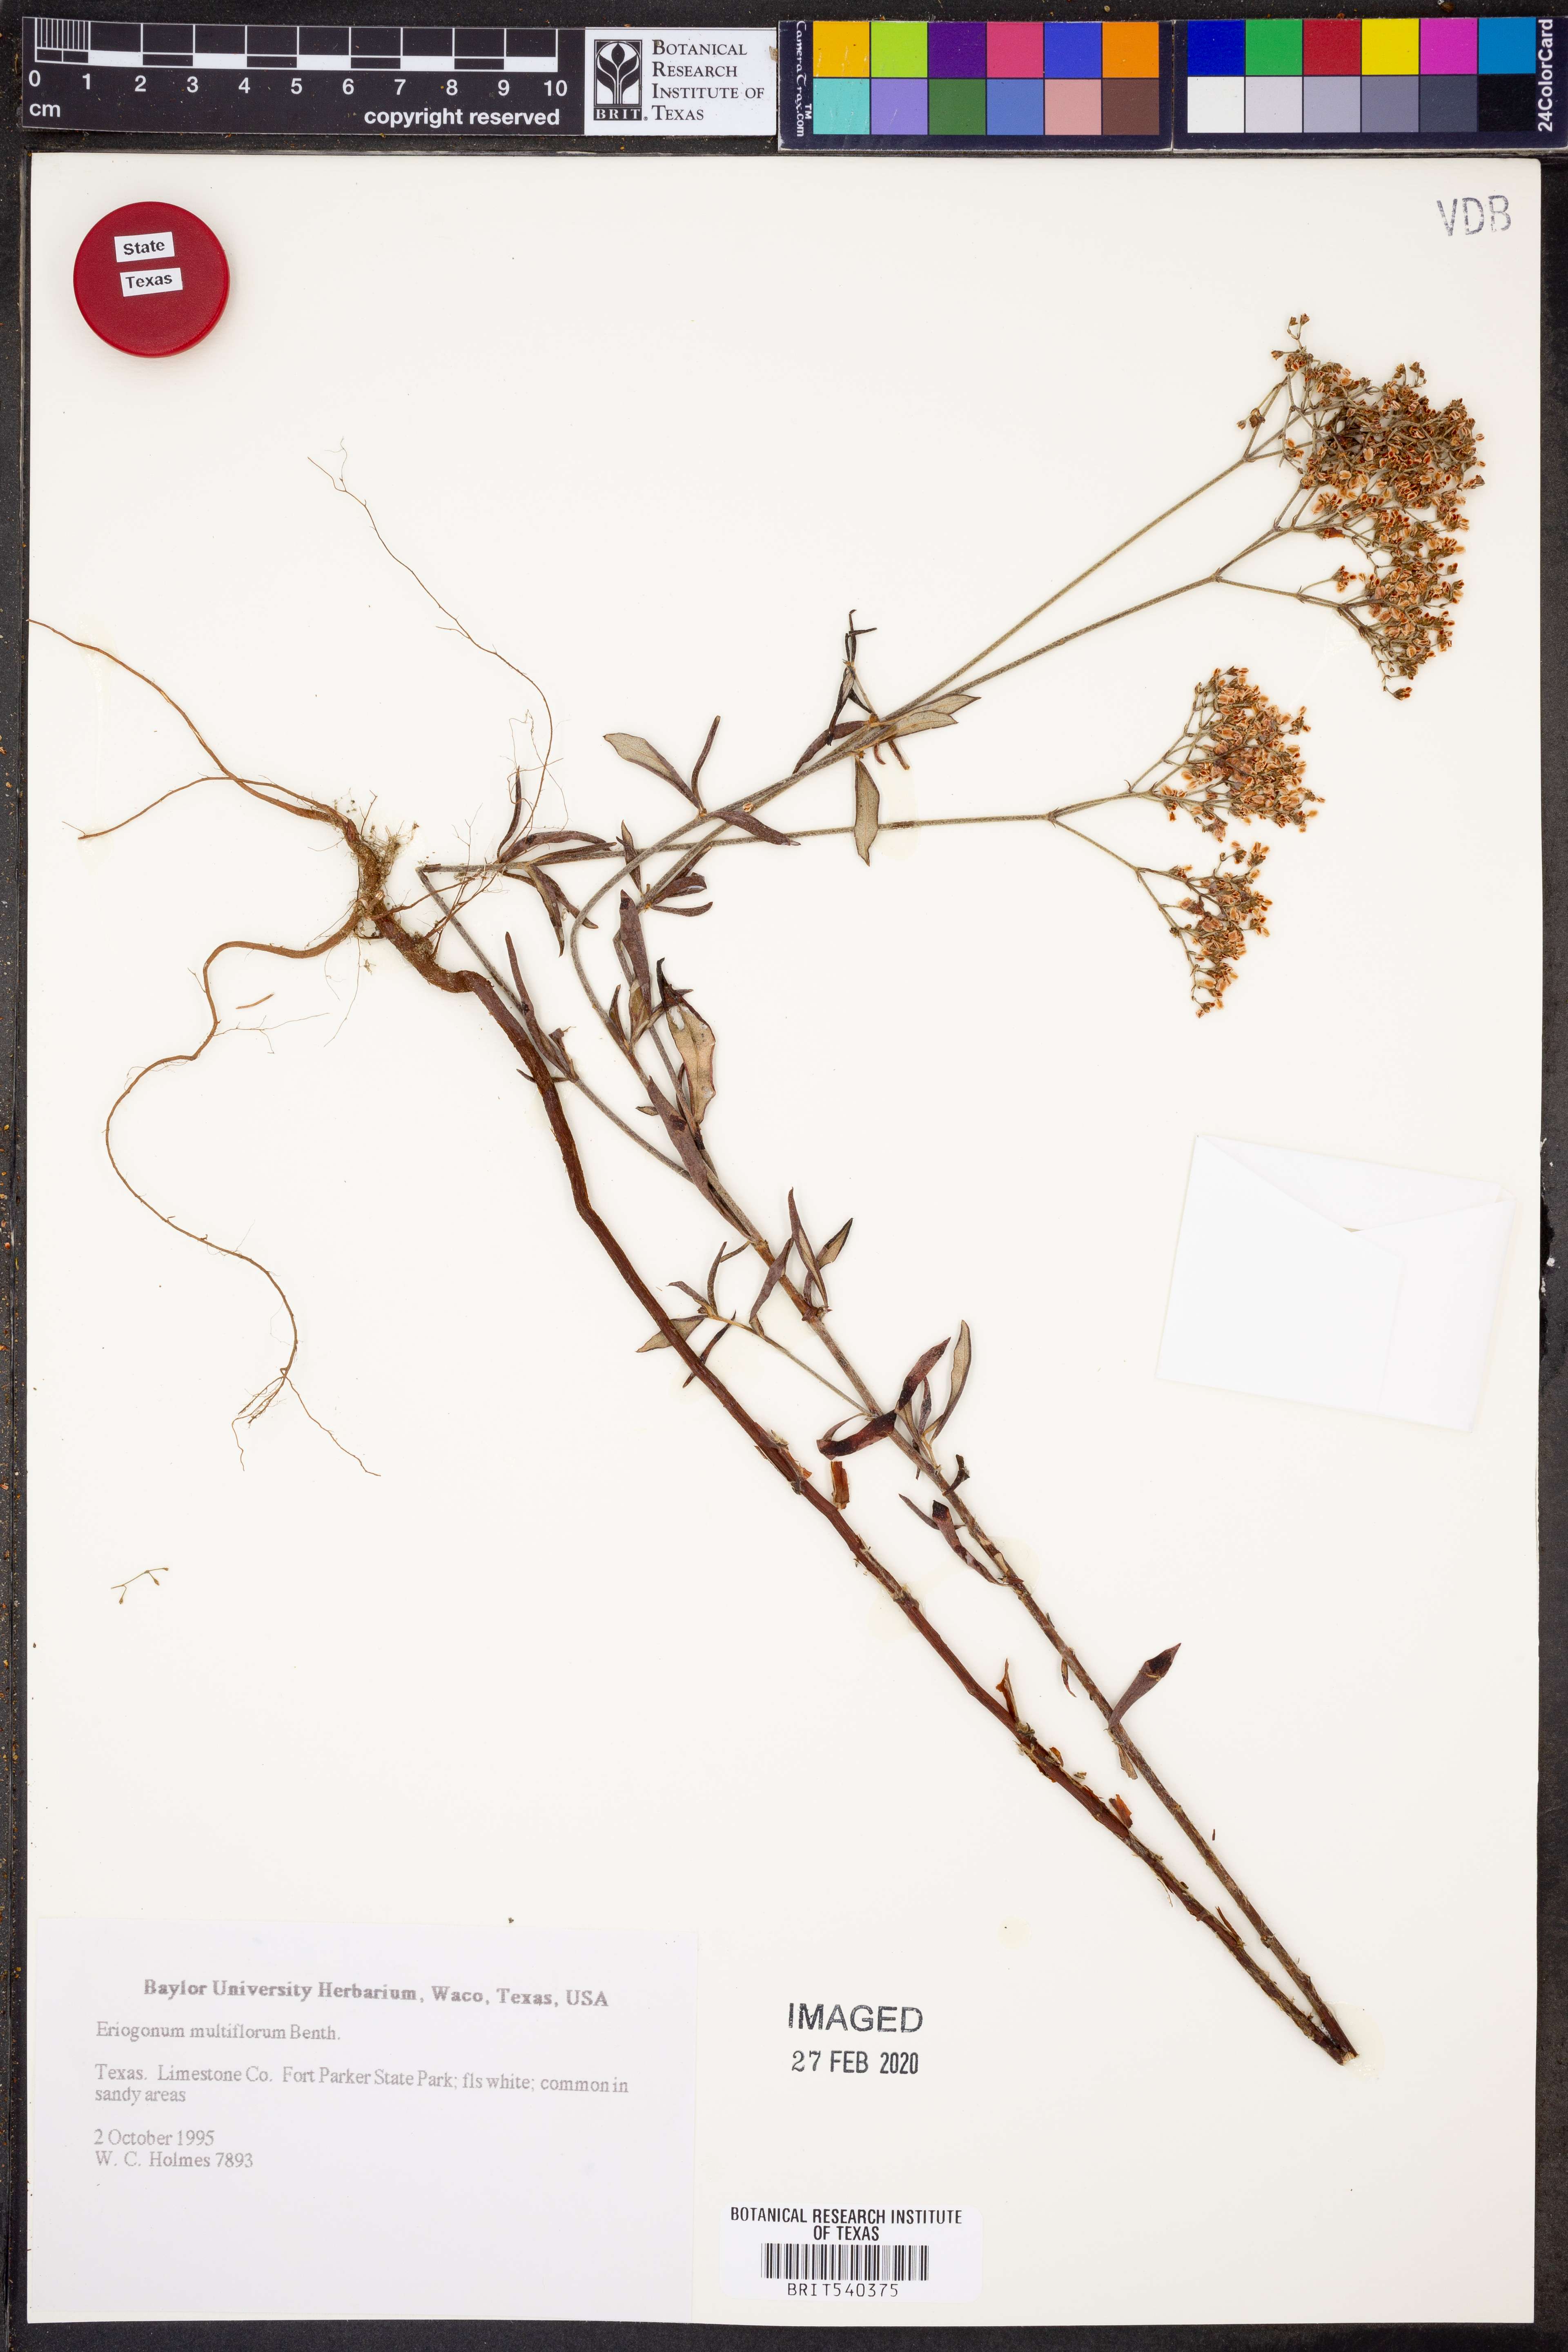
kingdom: Plantae
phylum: Tracheophyta
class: Magnoliopsida
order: Caryophyllales
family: Polygonaceae
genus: Eriogonum
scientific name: Eriogonum multiflorum
